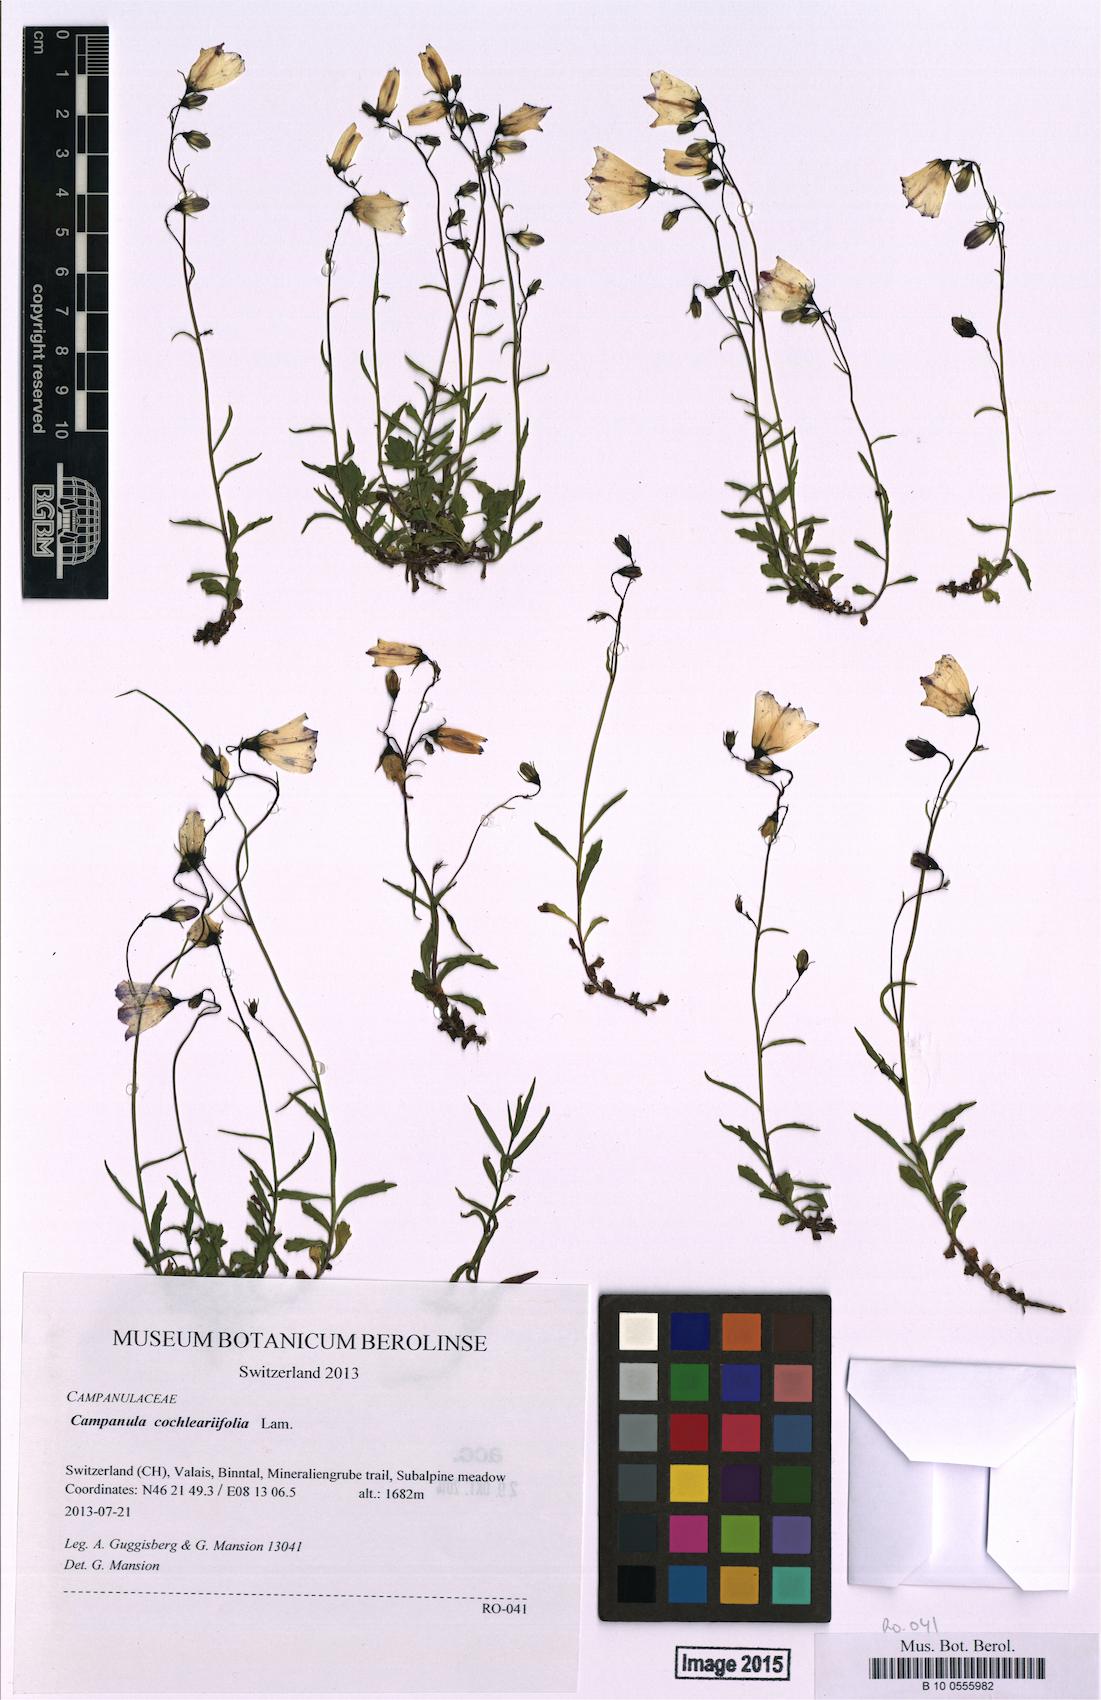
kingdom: Plantae
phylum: Tracheophyta
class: Magnoliopsida
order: Asterales
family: Campanulaceae
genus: Campanula
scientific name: Campanula cochleariifolia
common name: Fairies'-thimbles
